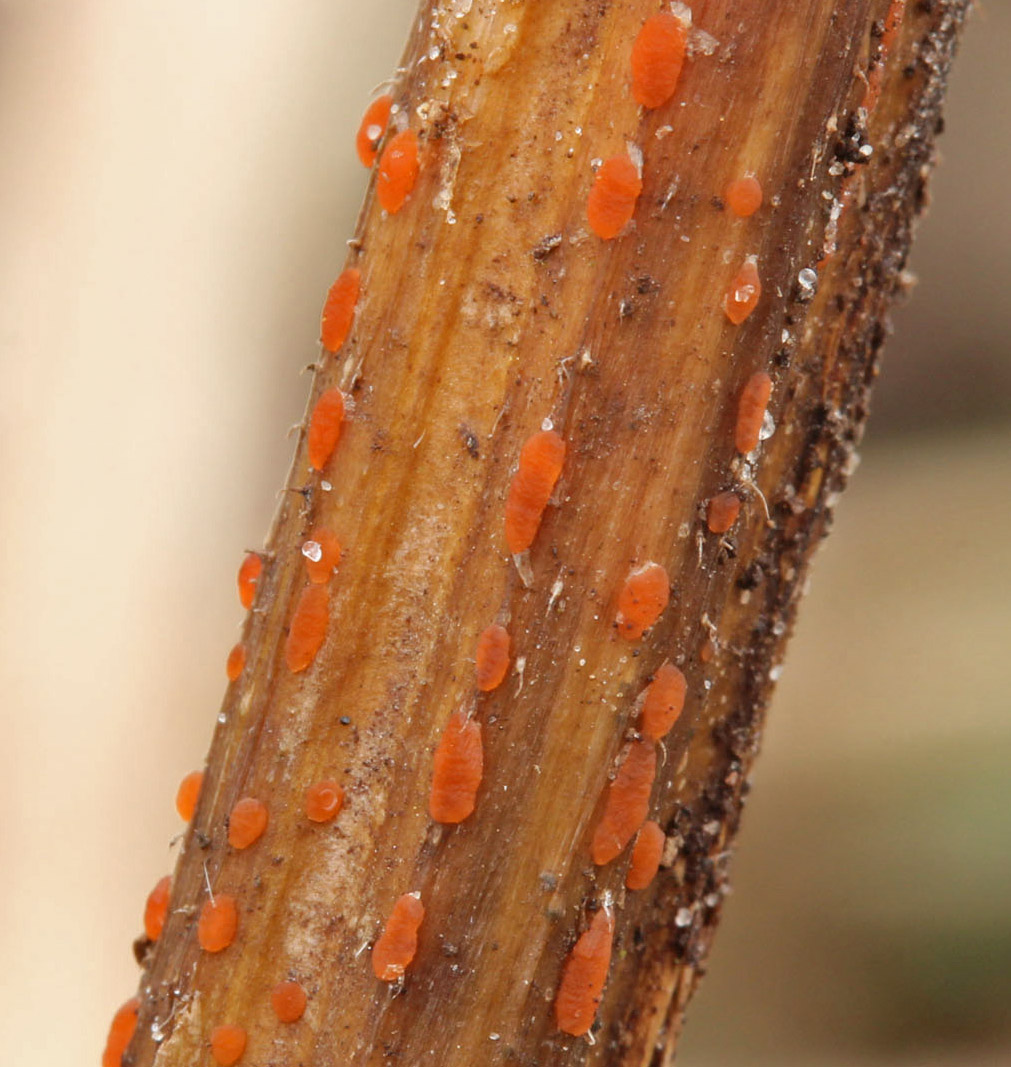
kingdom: Fungi
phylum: Ascomycota
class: Leotiomycetes
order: Helotiales
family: Calloriaceae
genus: Calloria
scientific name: Calloria urticae
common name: nælde-orangeskive
